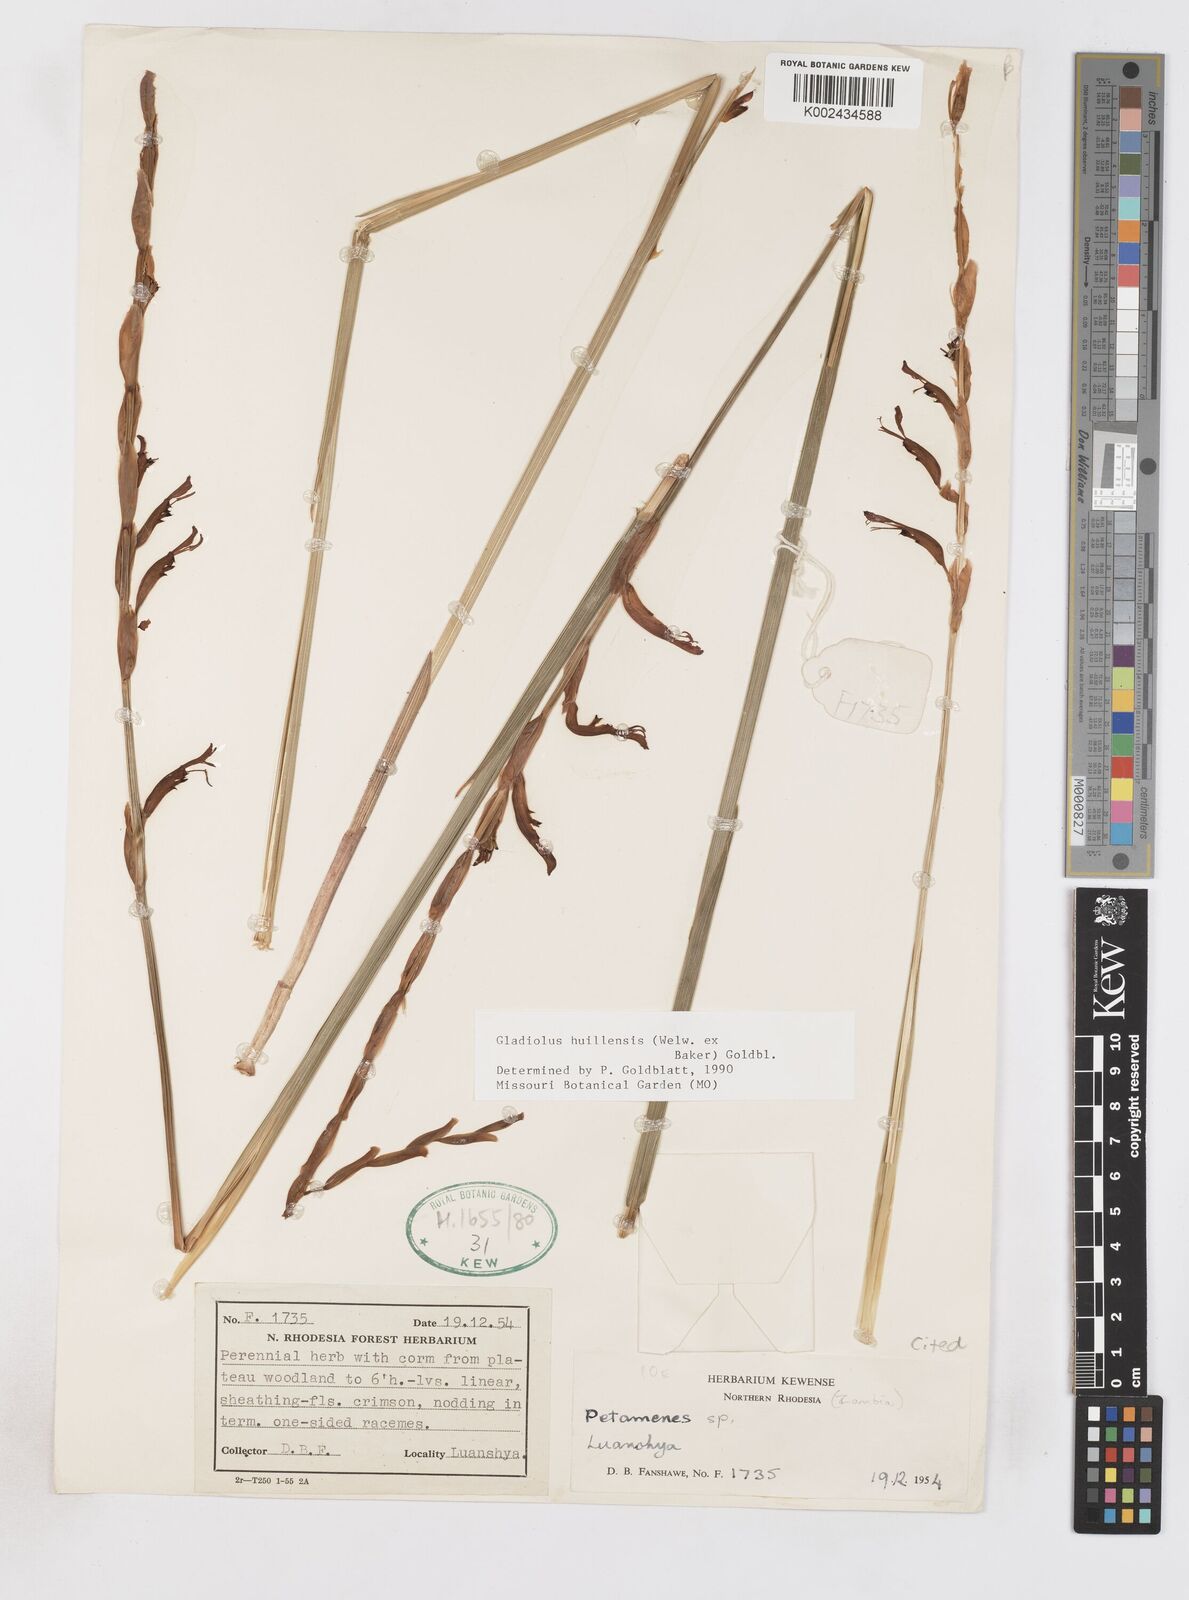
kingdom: Plantae
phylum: Tracheophyta
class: Liliopsida
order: Asparagales
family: Iridaceae
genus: Gladiolus
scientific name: Gladiolus huillensis
